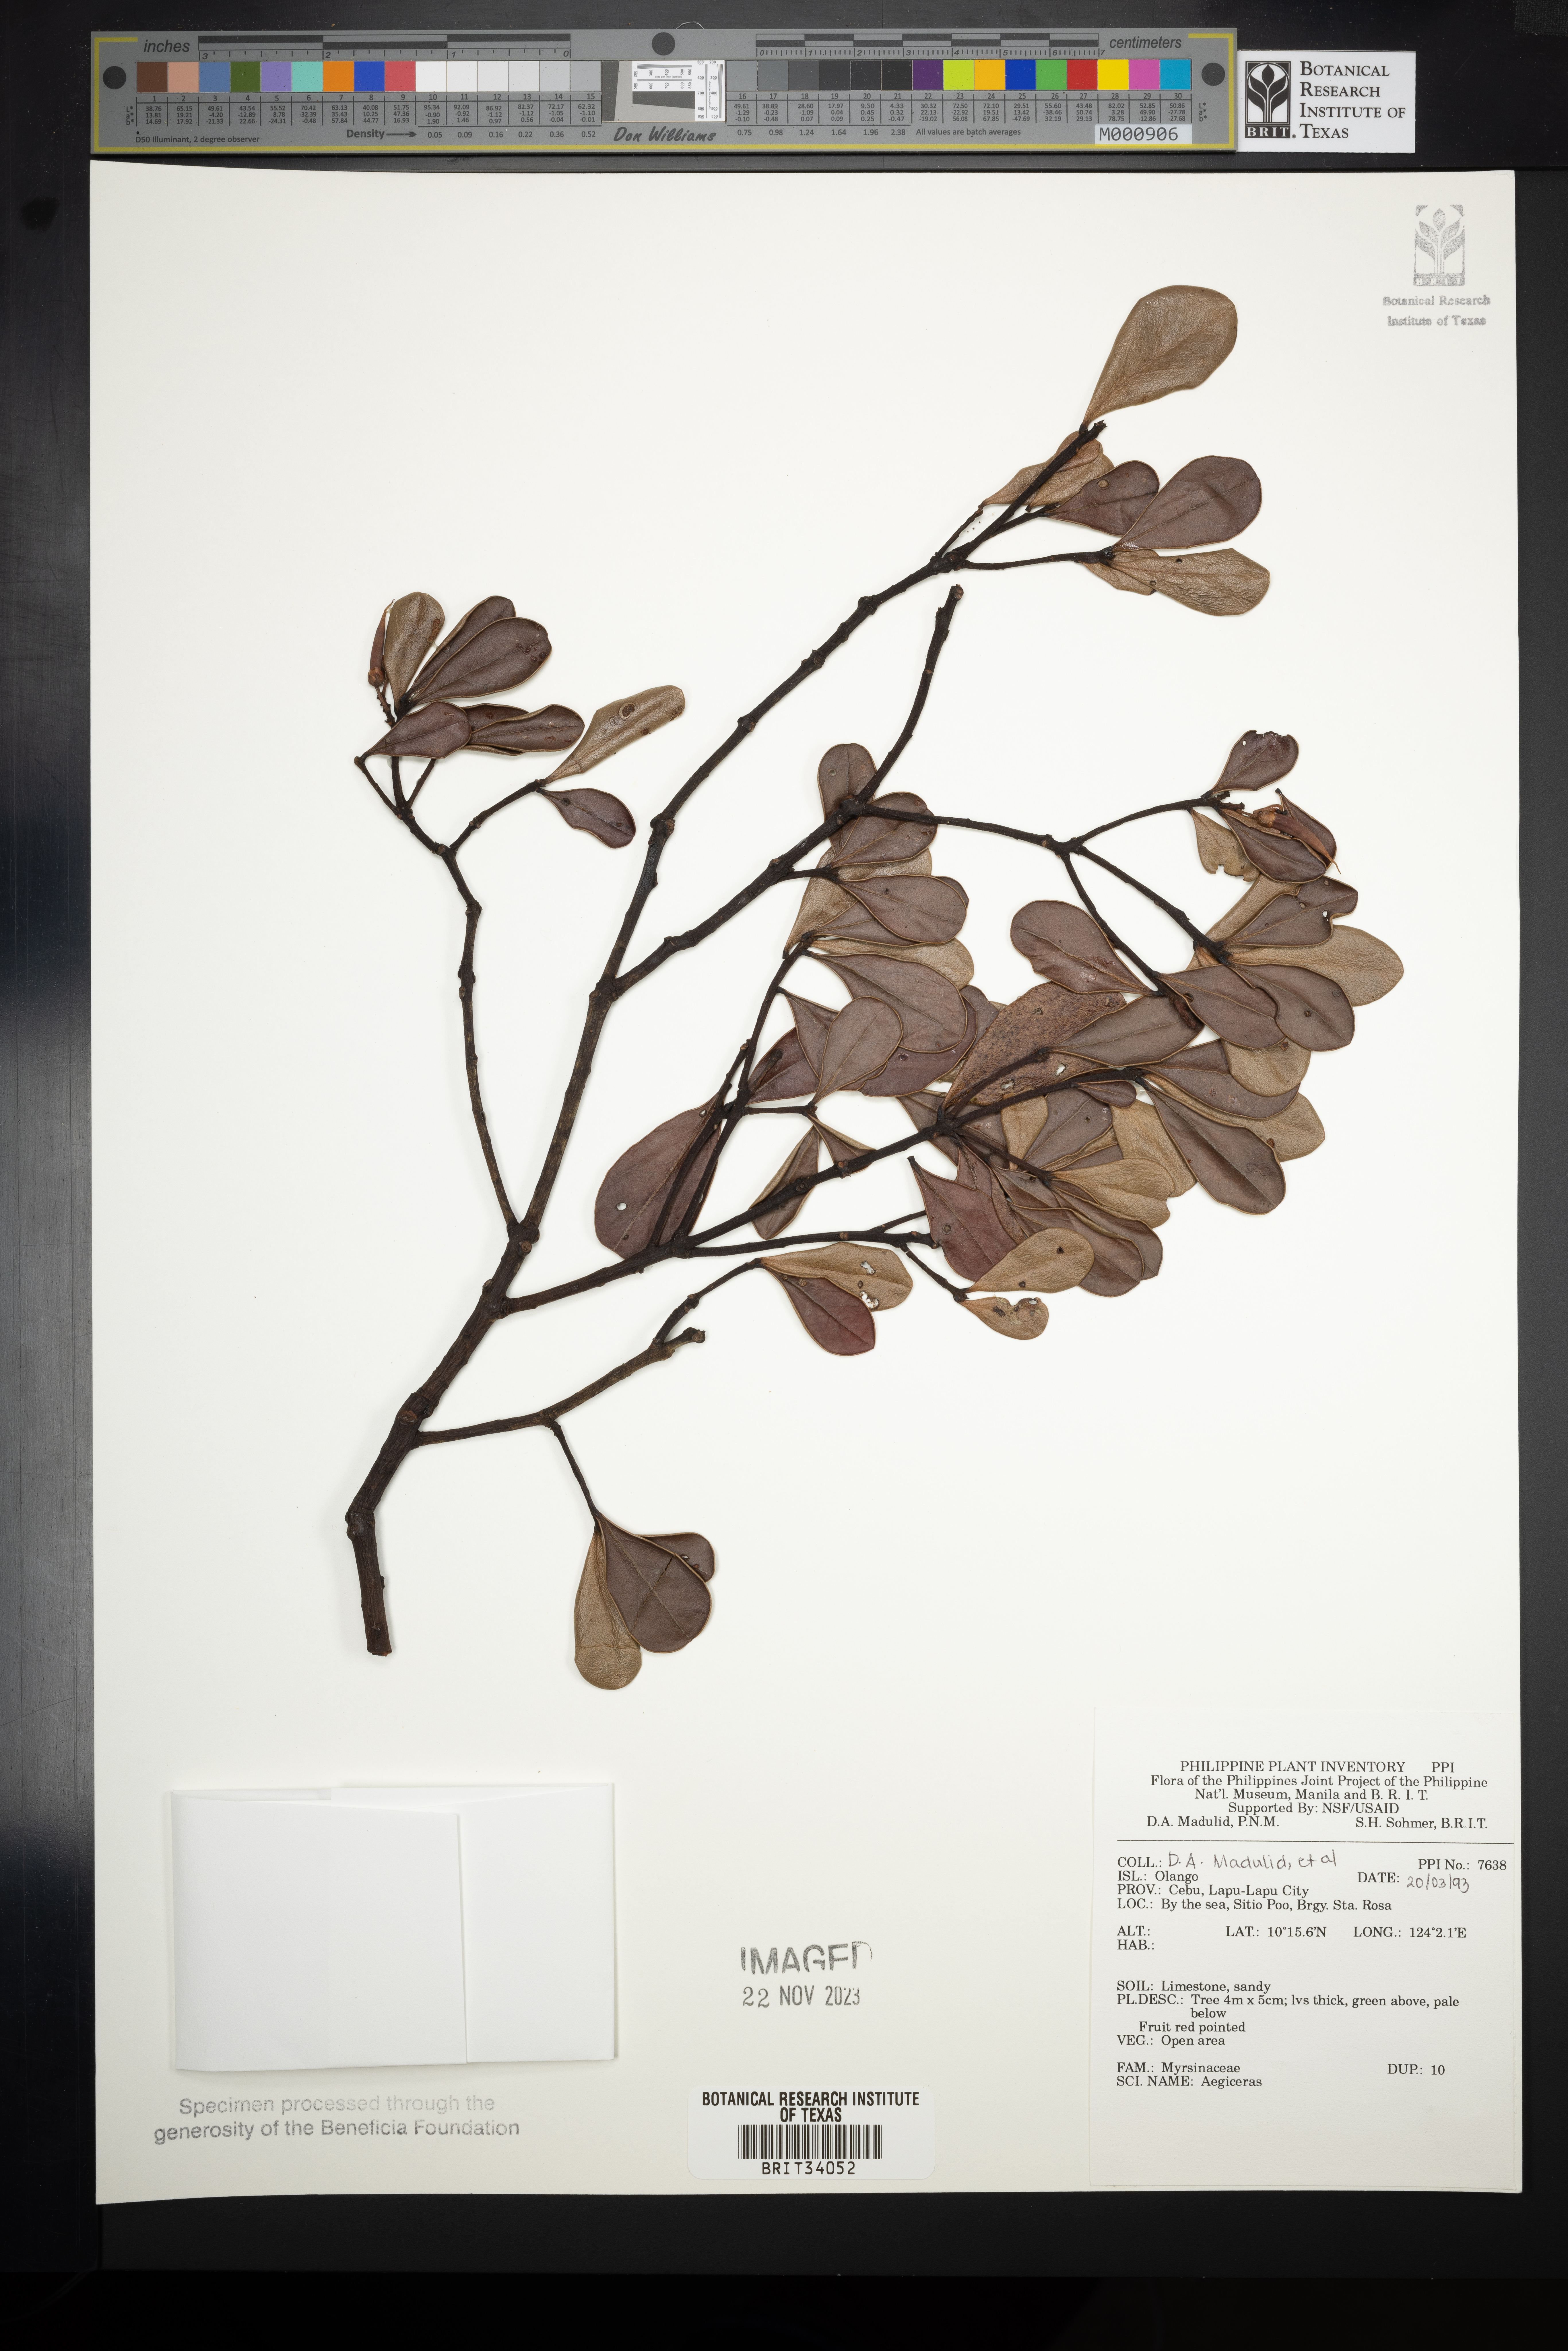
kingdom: Plantae
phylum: Tracheophyta
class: Magnoliopsida
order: Ericales
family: Primulaceae
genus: Aegiceras
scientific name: Aegiceras
